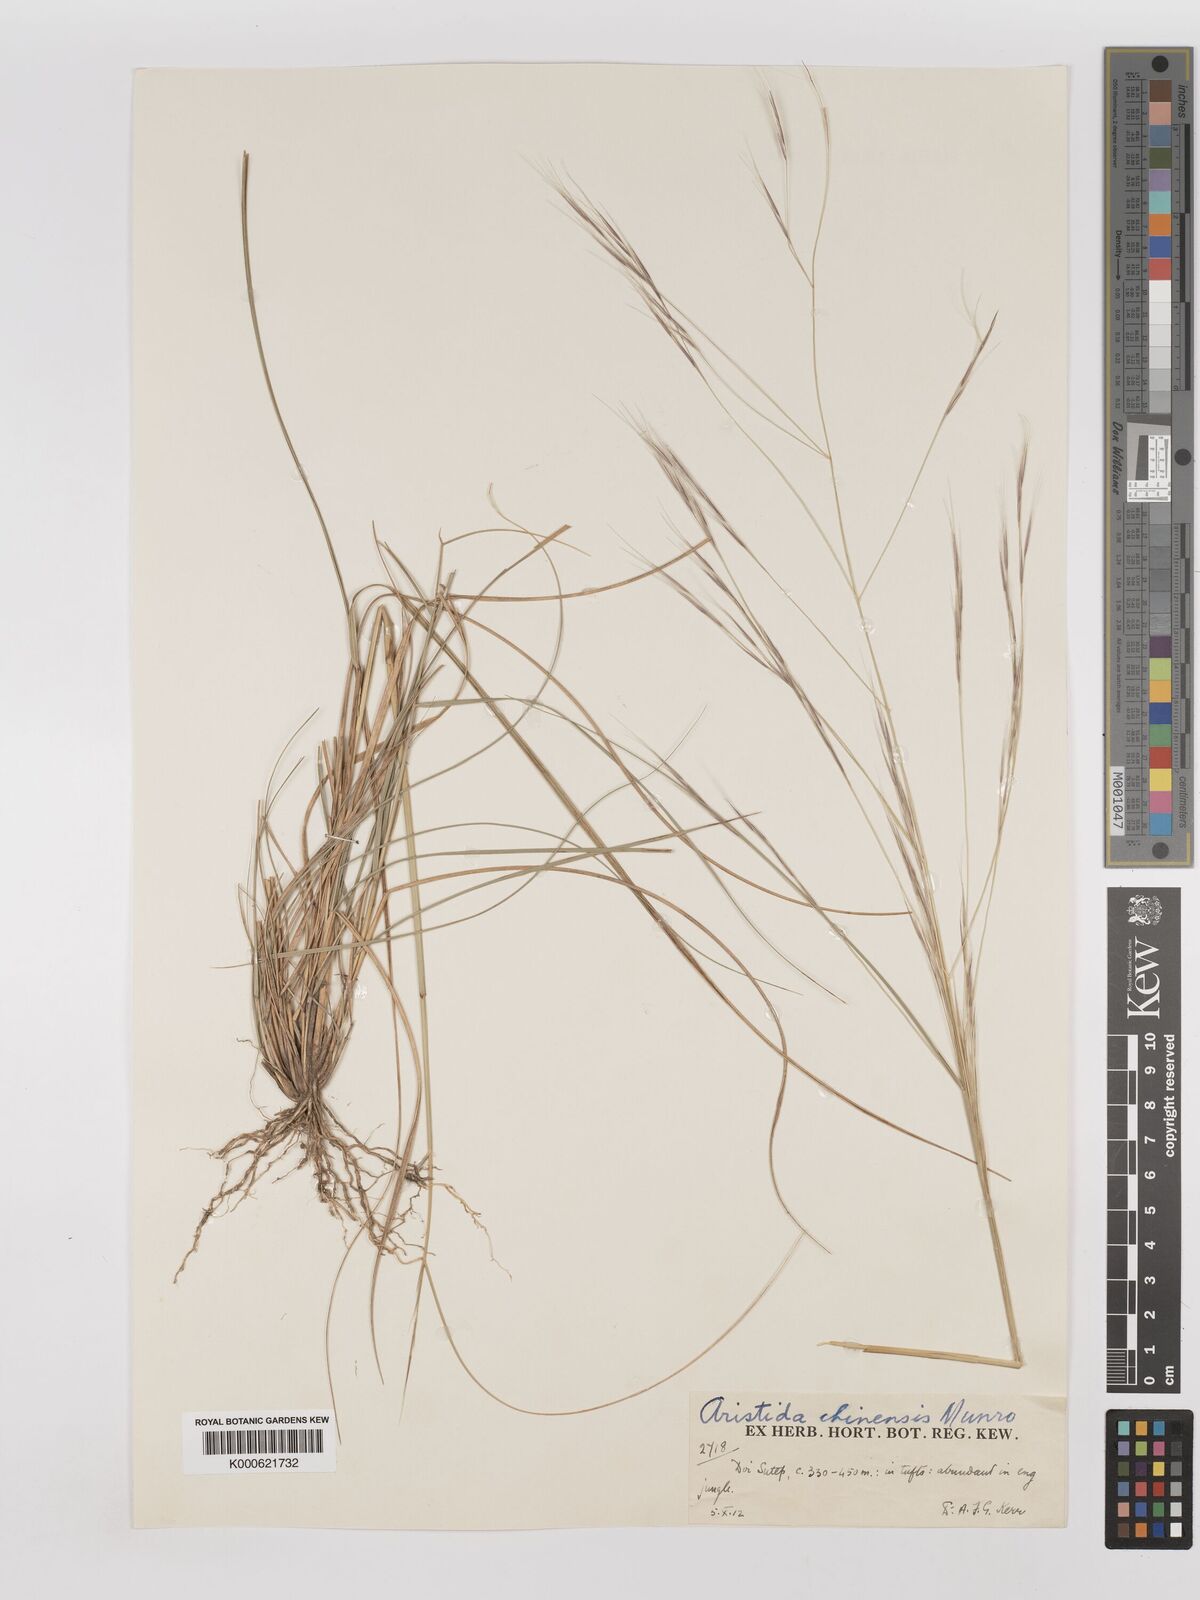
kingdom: Plantae
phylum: Tracheophyta
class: Liliopsida
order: Poales
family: Poaceae
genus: Aristida
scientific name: Aristida chinensis
